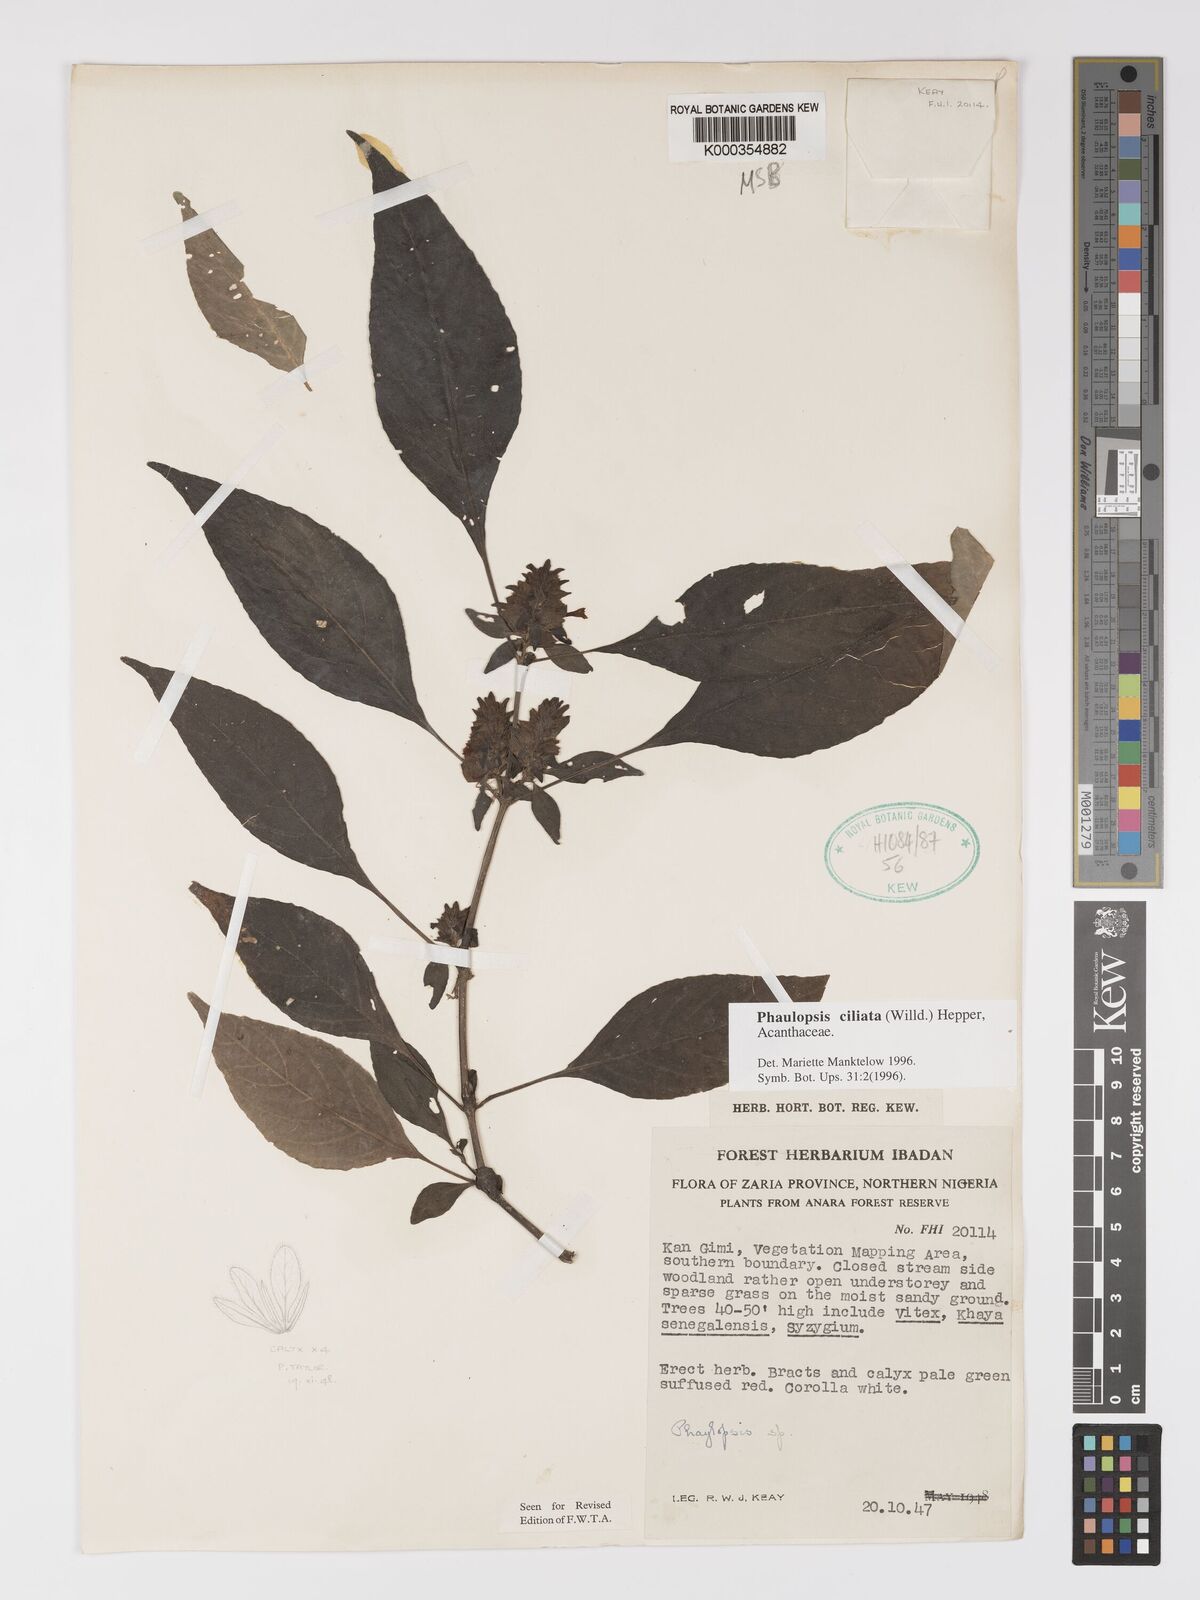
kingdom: Plantae
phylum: Tracheophyta
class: Magnoliopsida
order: Lamiales
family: Acanthaceae
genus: Phaulopsis
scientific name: Phaulopsis ciliata
